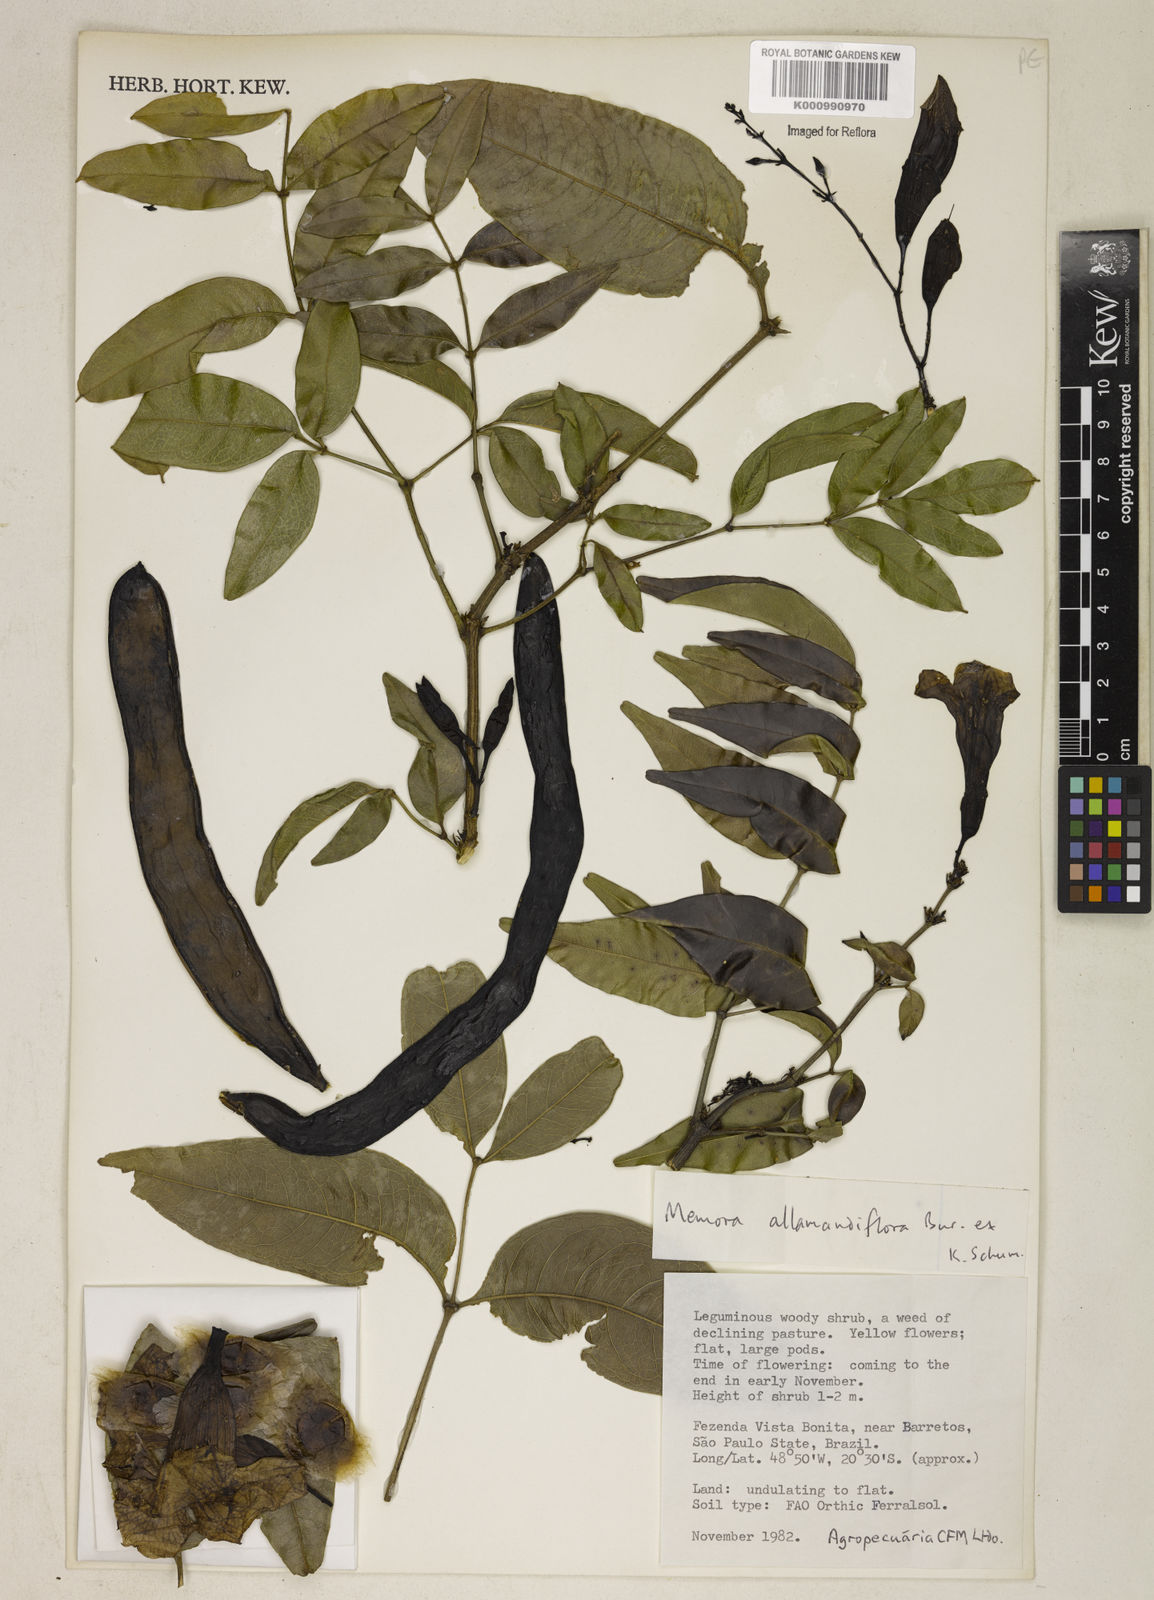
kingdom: Plantae
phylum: Tracheophyta
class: Magnoliopsida
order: Lamiales
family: Bignoniaceae
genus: Adenocalymma
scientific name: Adenocalymma
